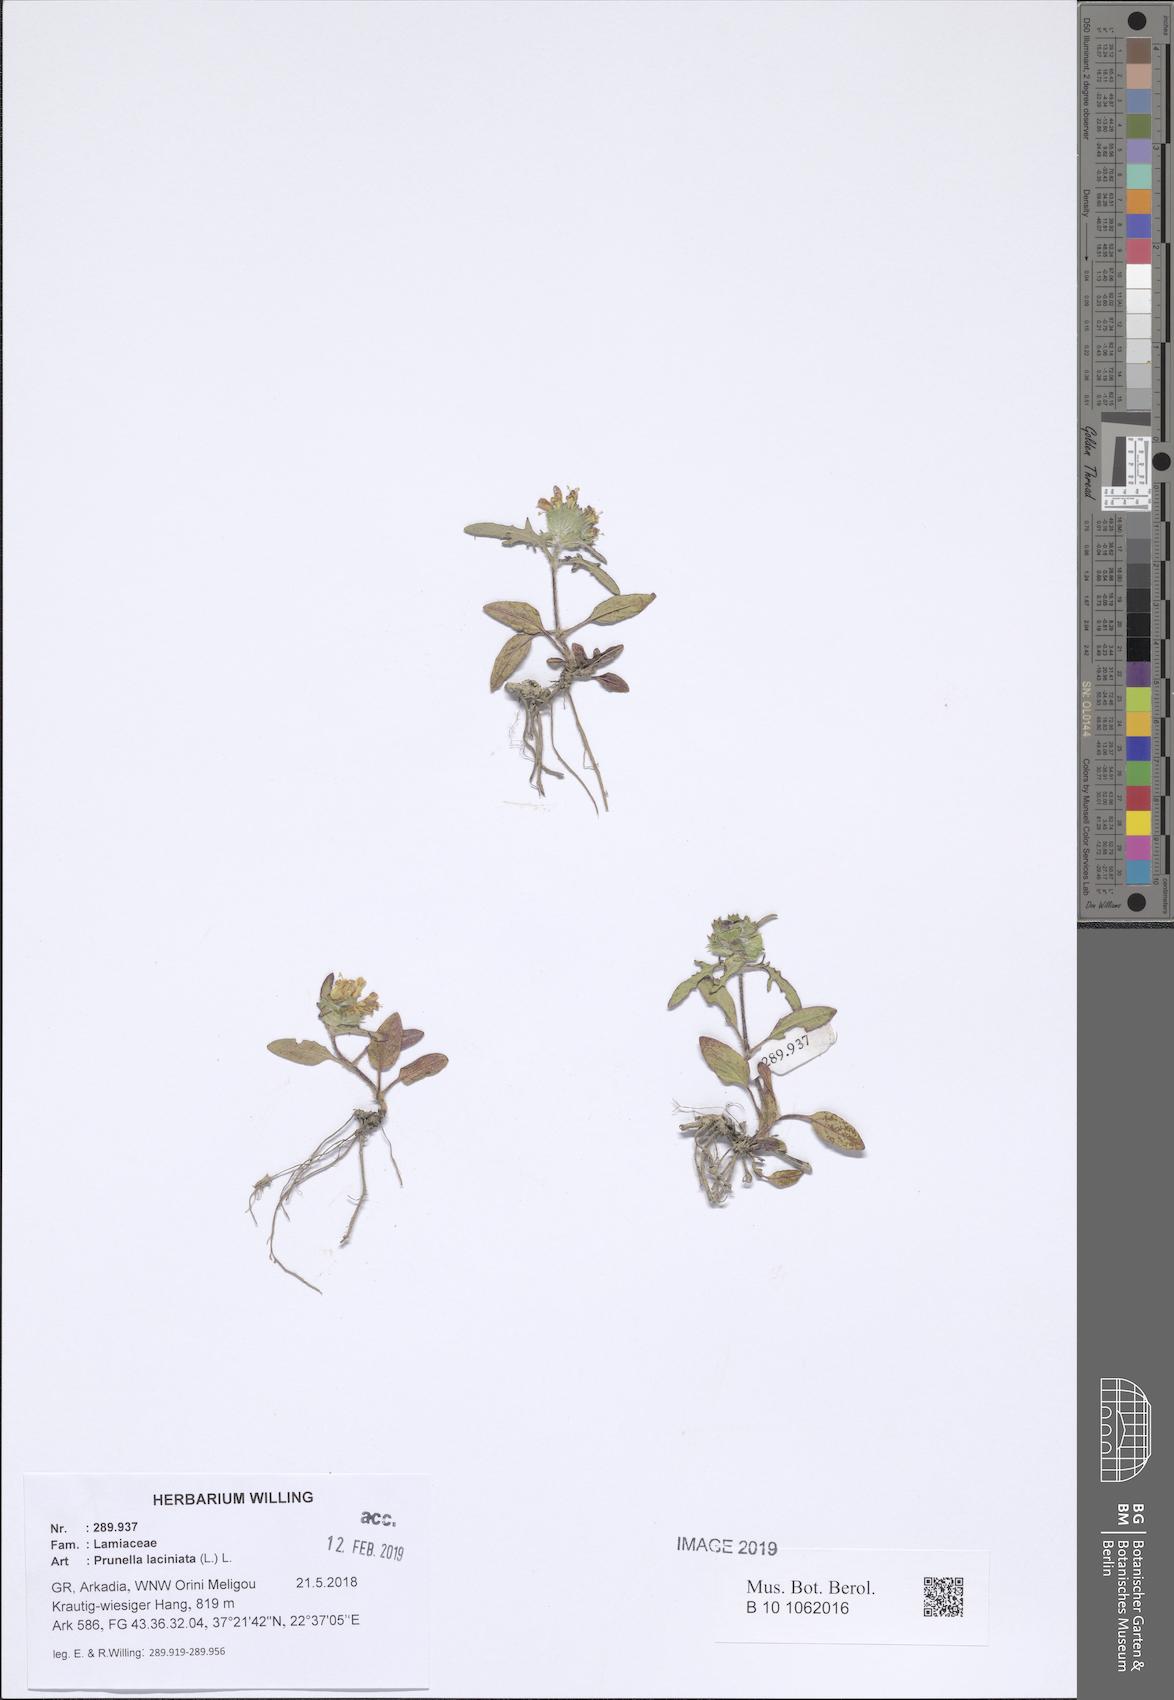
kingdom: Plantae
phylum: Tracheophyta
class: Magnoliopsida
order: Lamiales
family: Lamiaceae
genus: Prunella
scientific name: Prunella laciniata
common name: Cut-leaved selfheal
